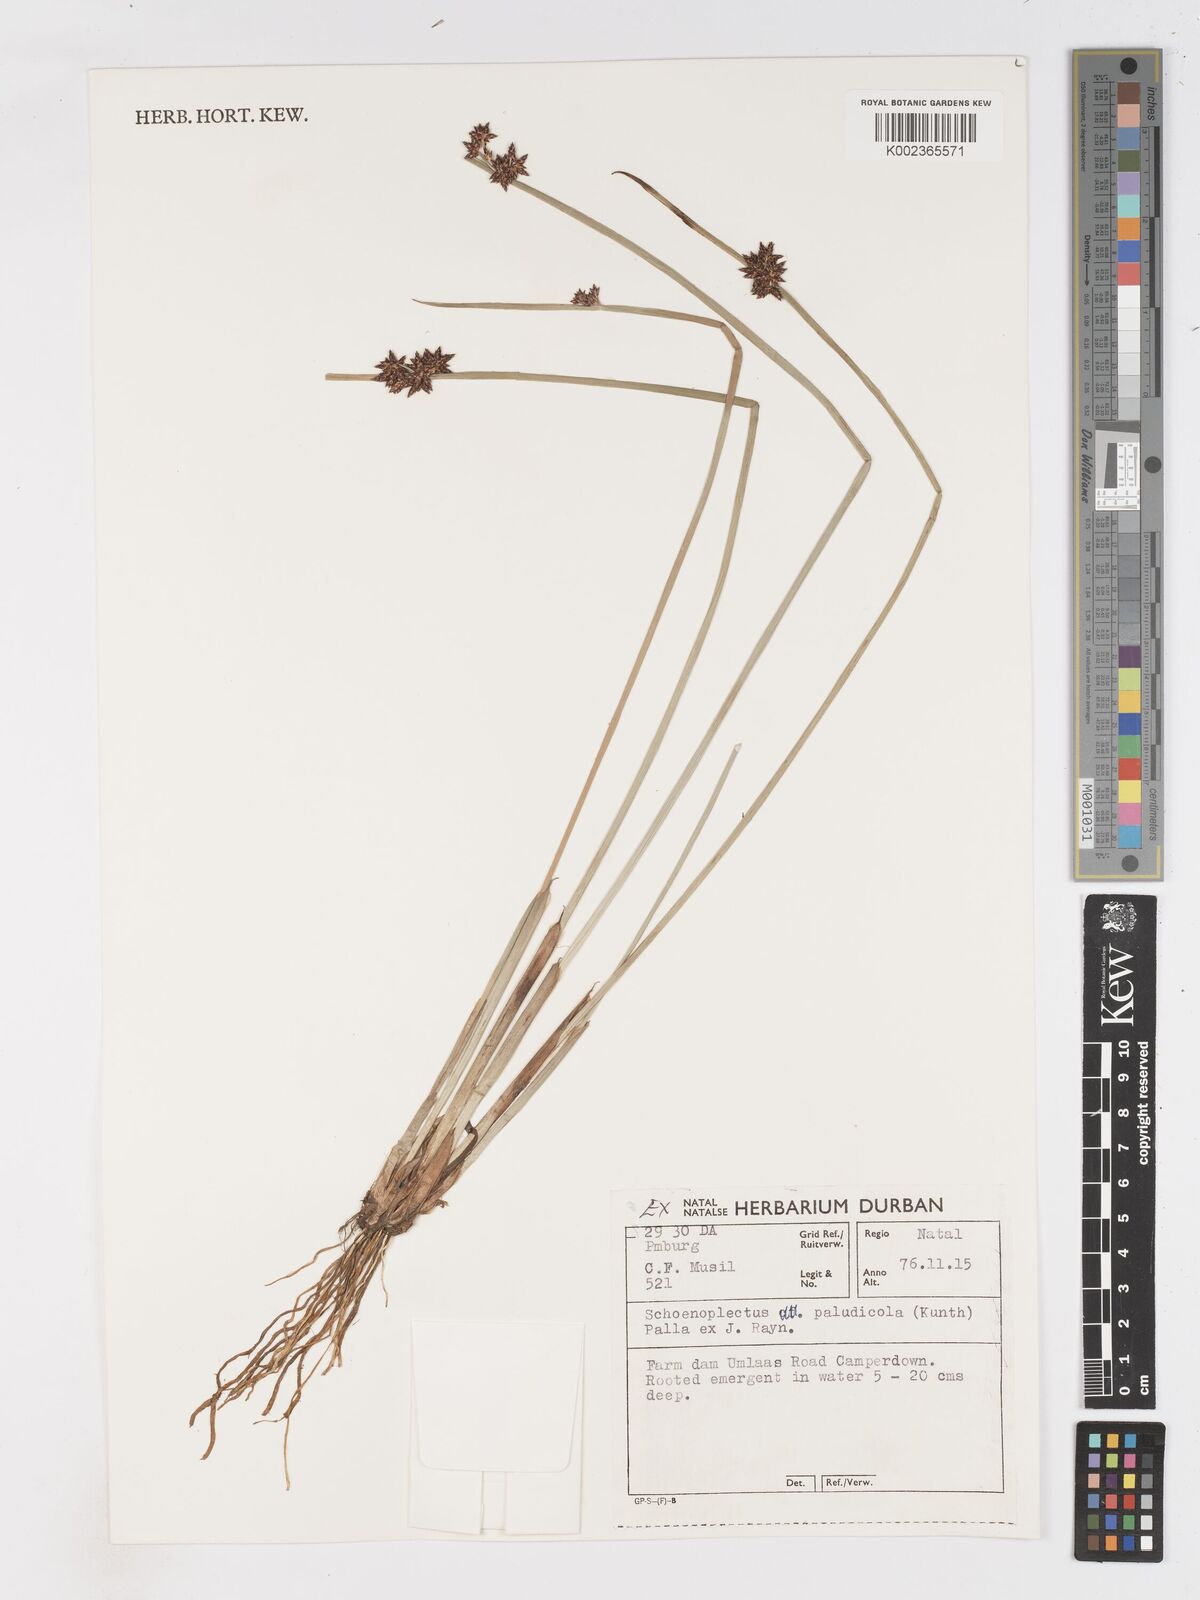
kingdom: Plantae
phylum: Tracheophyta
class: Liliopsida
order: Poales
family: Cyperaceae
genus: Schoenoplectiella
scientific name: Schoenoplectiella paludicola
